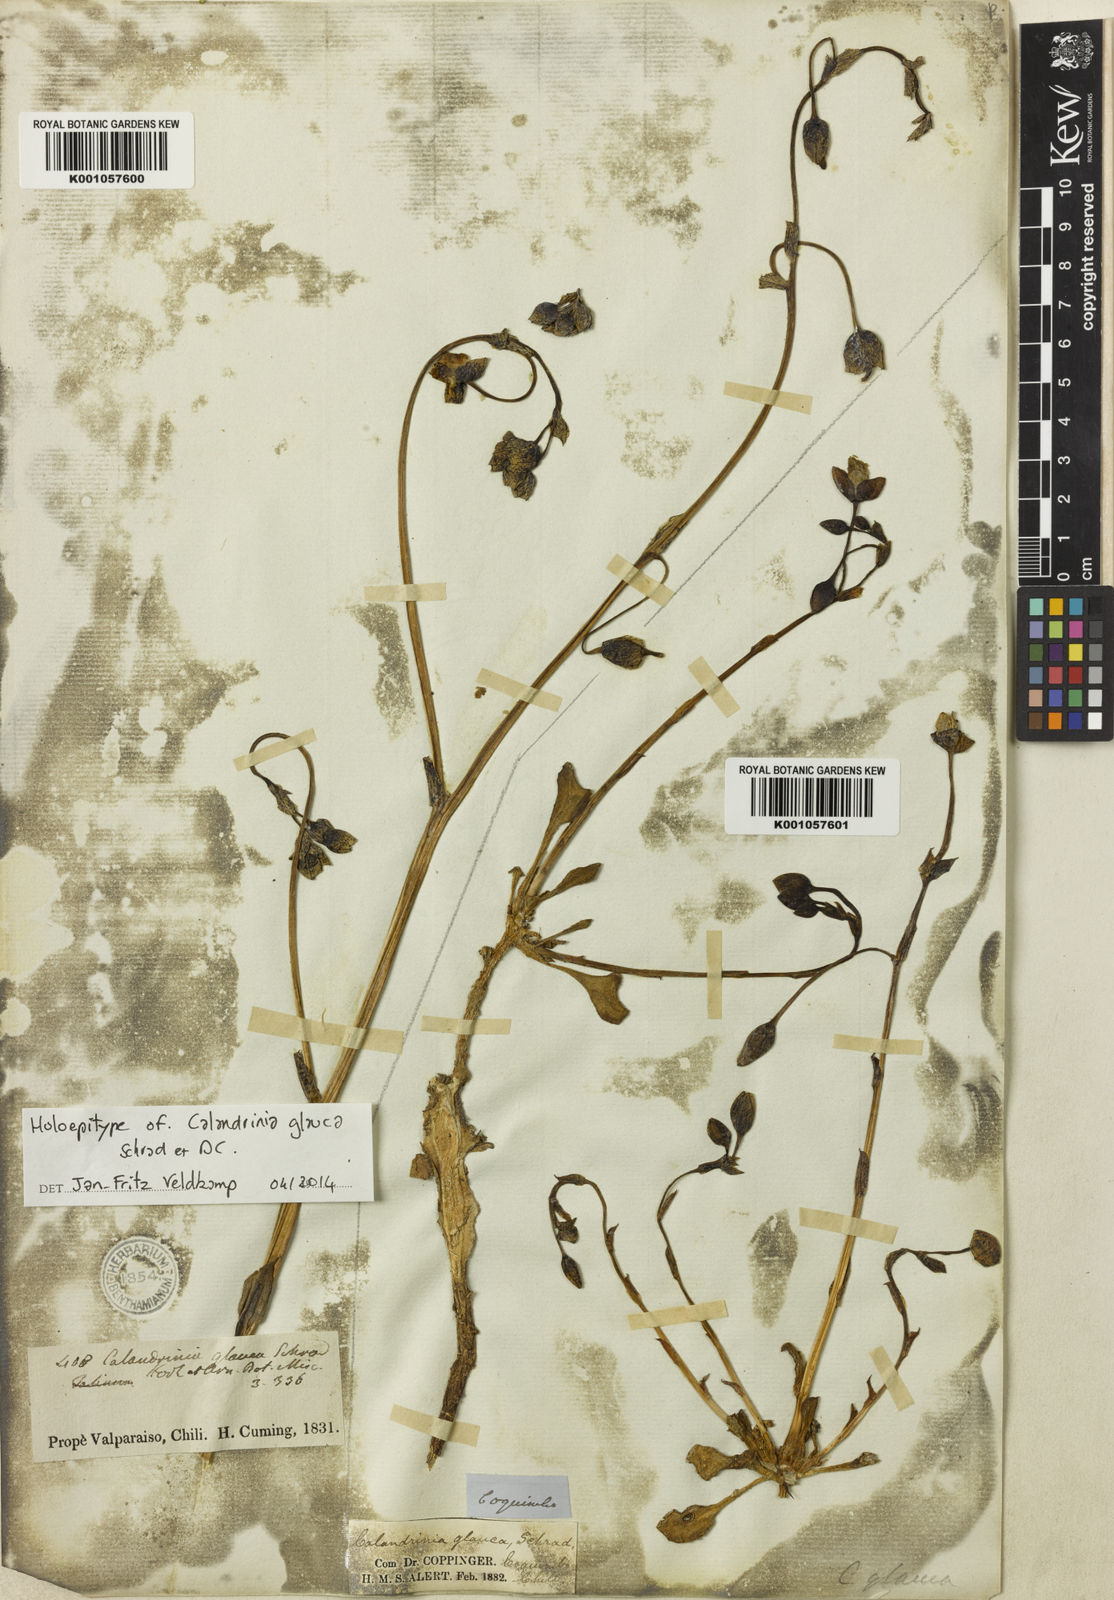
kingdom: Plantae
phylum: Tracheophyta
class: Magnoliopsida
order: Caryophyllales
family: Montiaceae
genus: Cistanthe
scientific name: Cistanthe grandiflora
